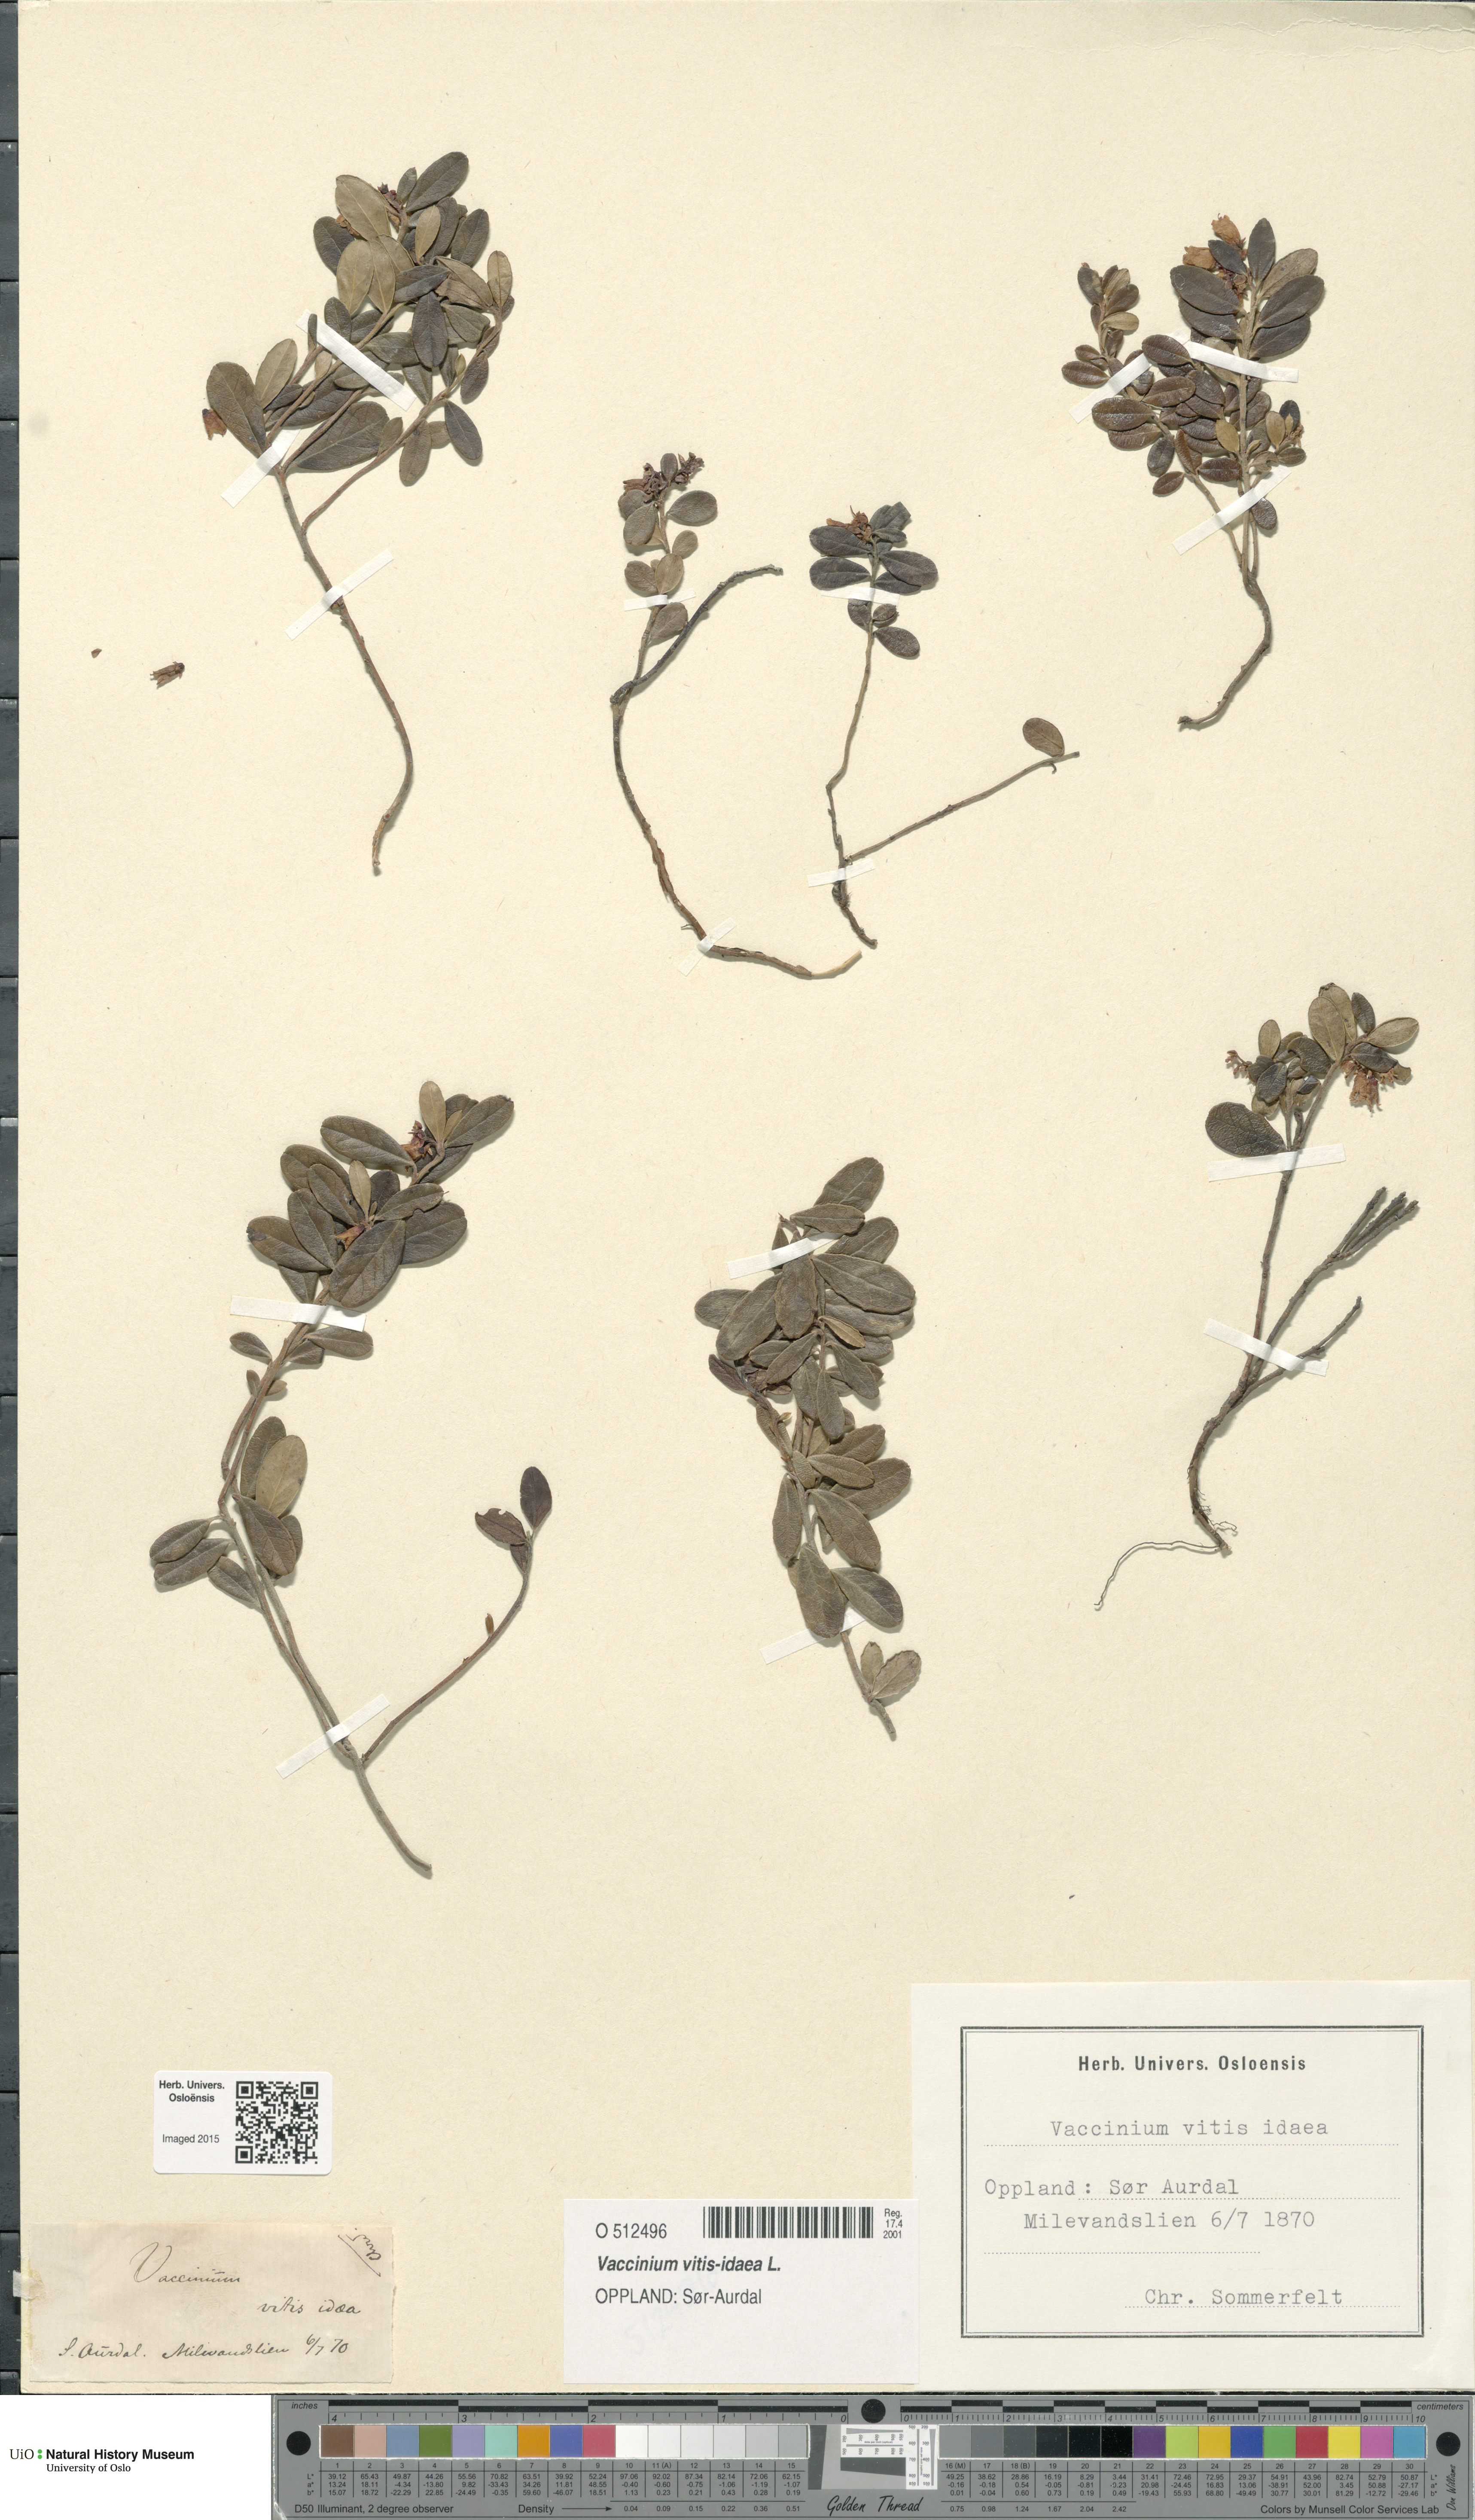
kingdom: Plantae
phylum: Tracheophyta
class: Magnoliopsida
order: Ericales
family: Ericaceae
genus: Vaccinium
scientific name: Vaccinium vitis-idaea
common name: Cowberry
